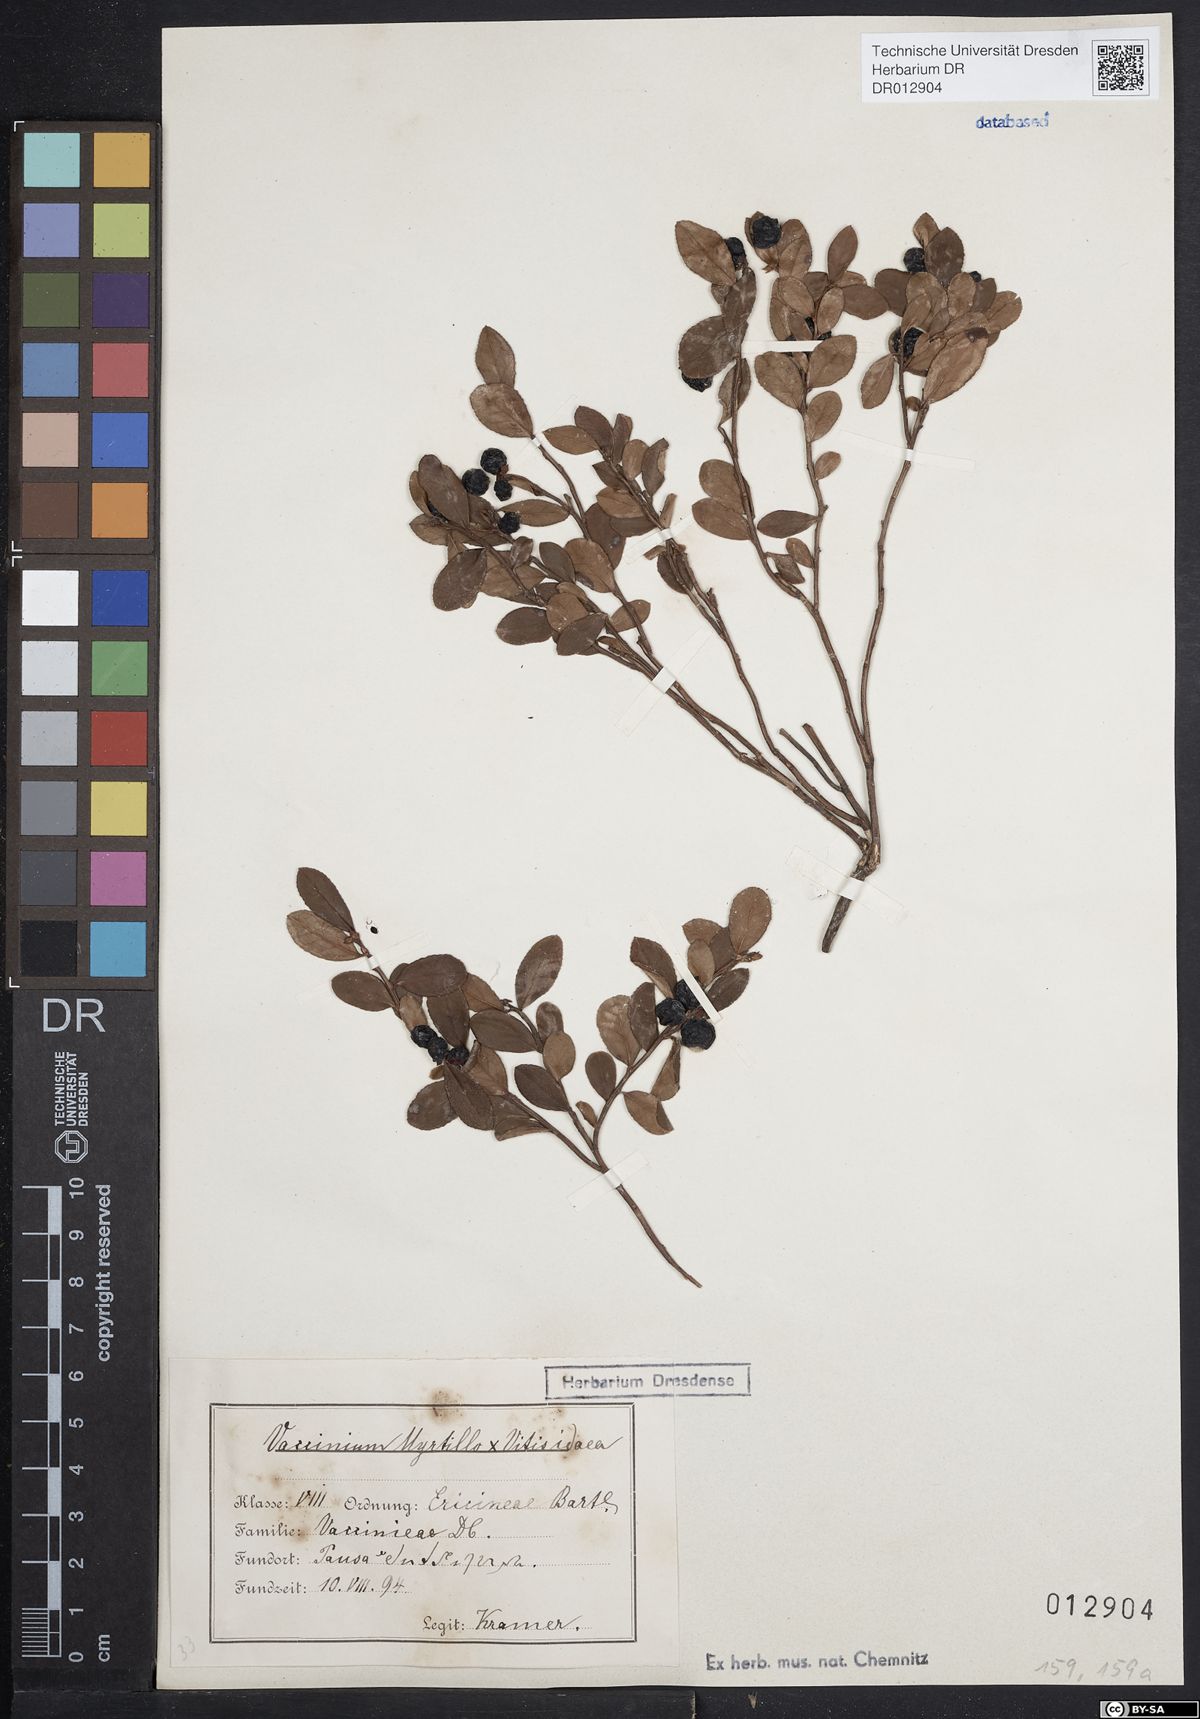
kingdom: Plantae
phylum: Tracheophyta
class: Magnoliopsida
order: Ericales
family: Ericaceae
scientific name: Ericaceae
